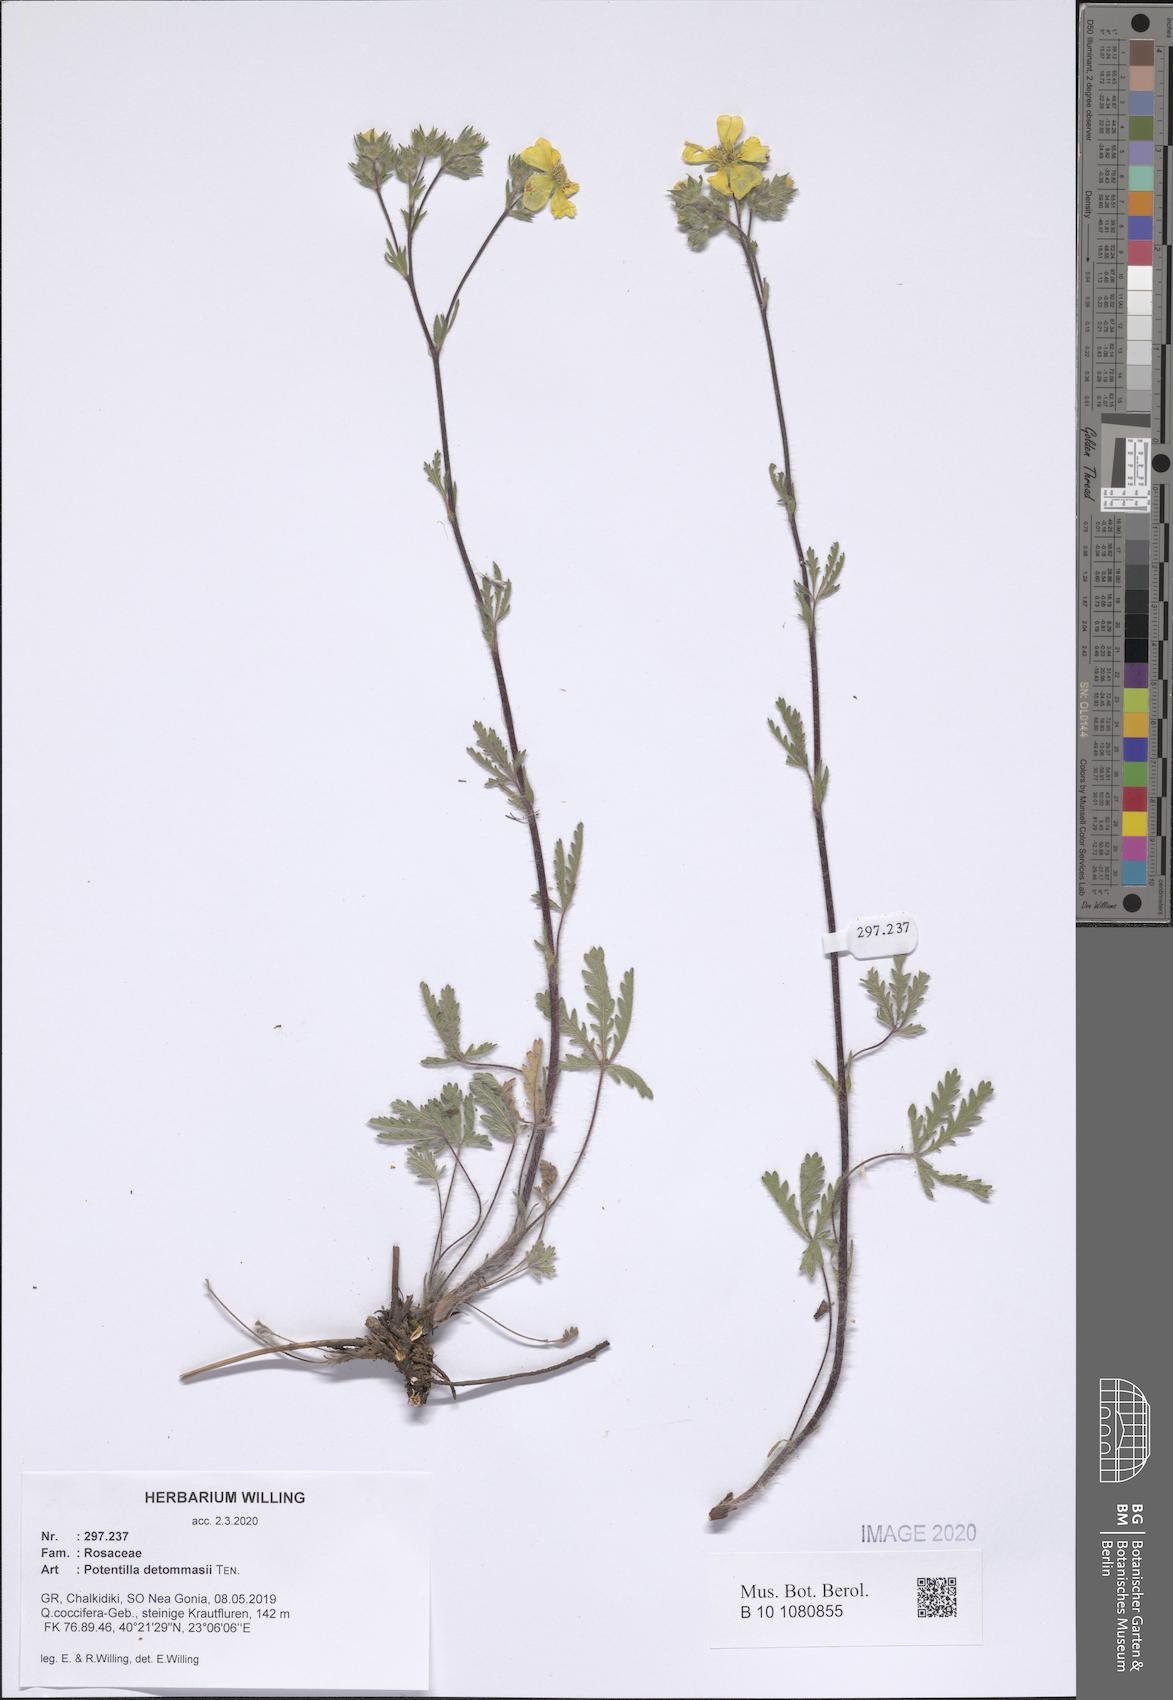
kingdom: Plantae
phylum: Tracheophyta
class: Magnoliopsida
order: Rosales
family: Rosaceae
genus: Potentilla
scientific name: Potentilla detommasii
